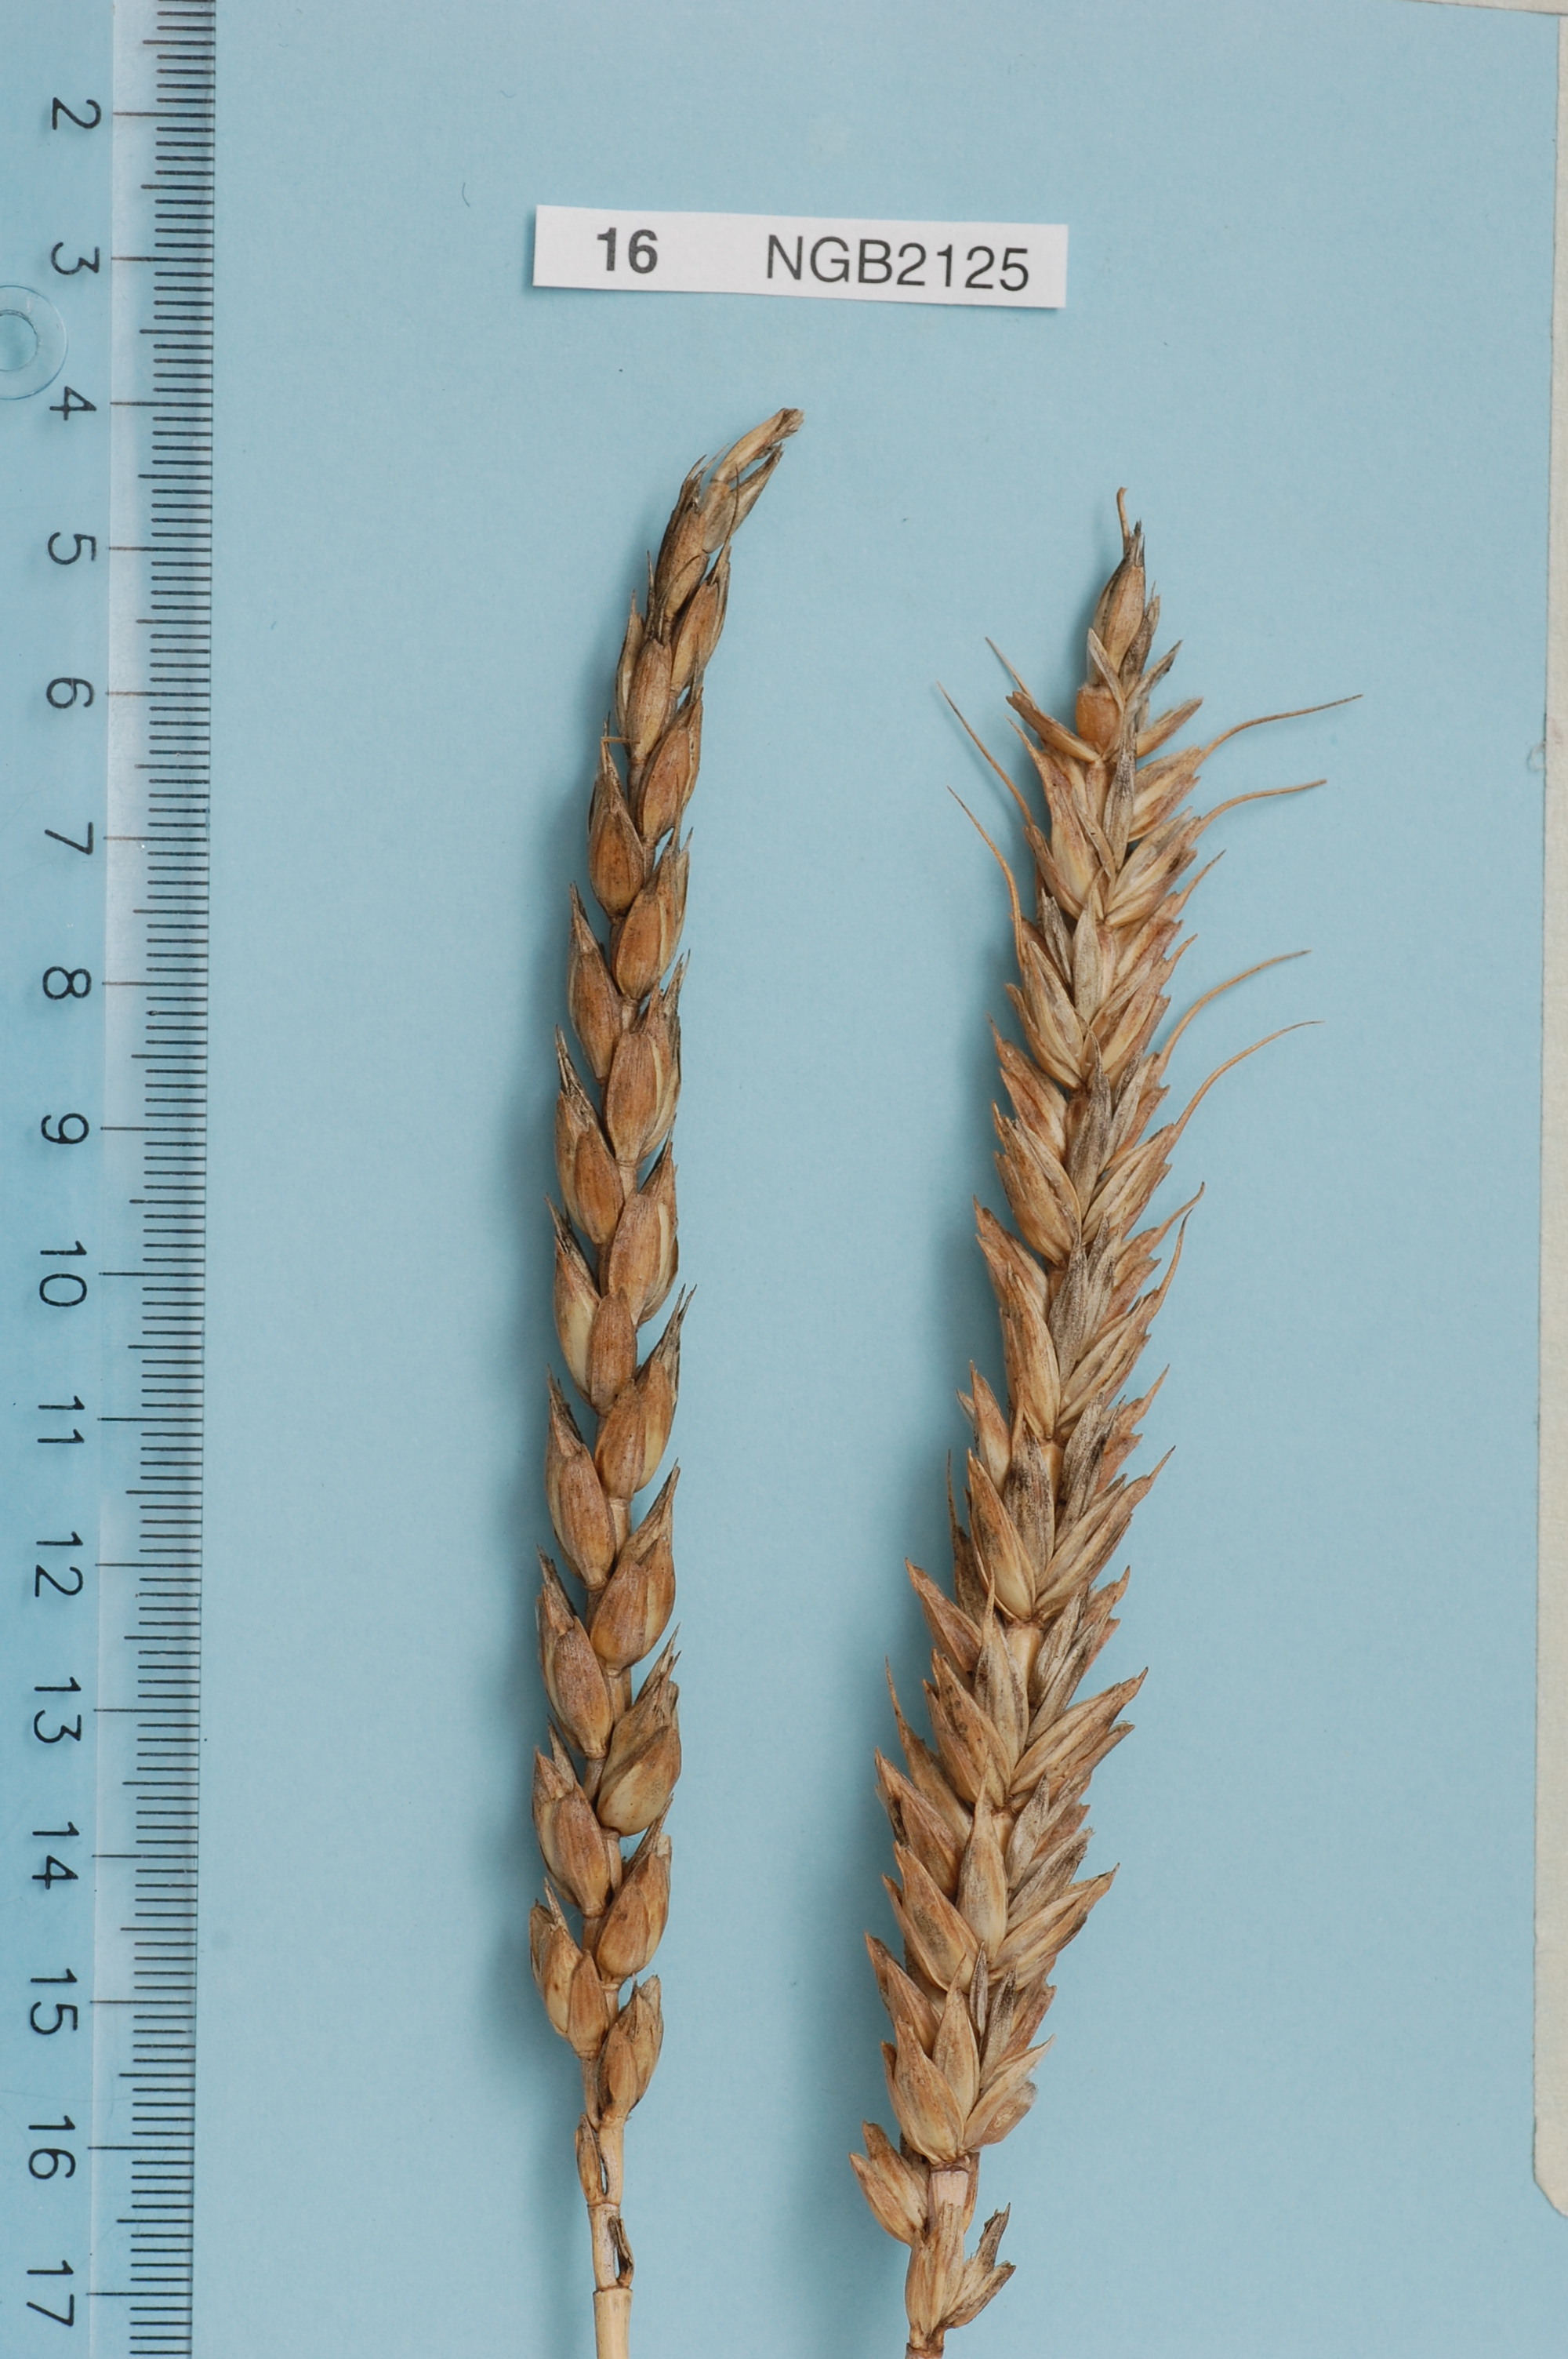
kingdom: Plantae
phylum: Tracheophyta
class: Liliopsida
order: Poales
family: Poaceae
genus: Triticum
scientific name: Triticum aestivum
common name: Common wheat
